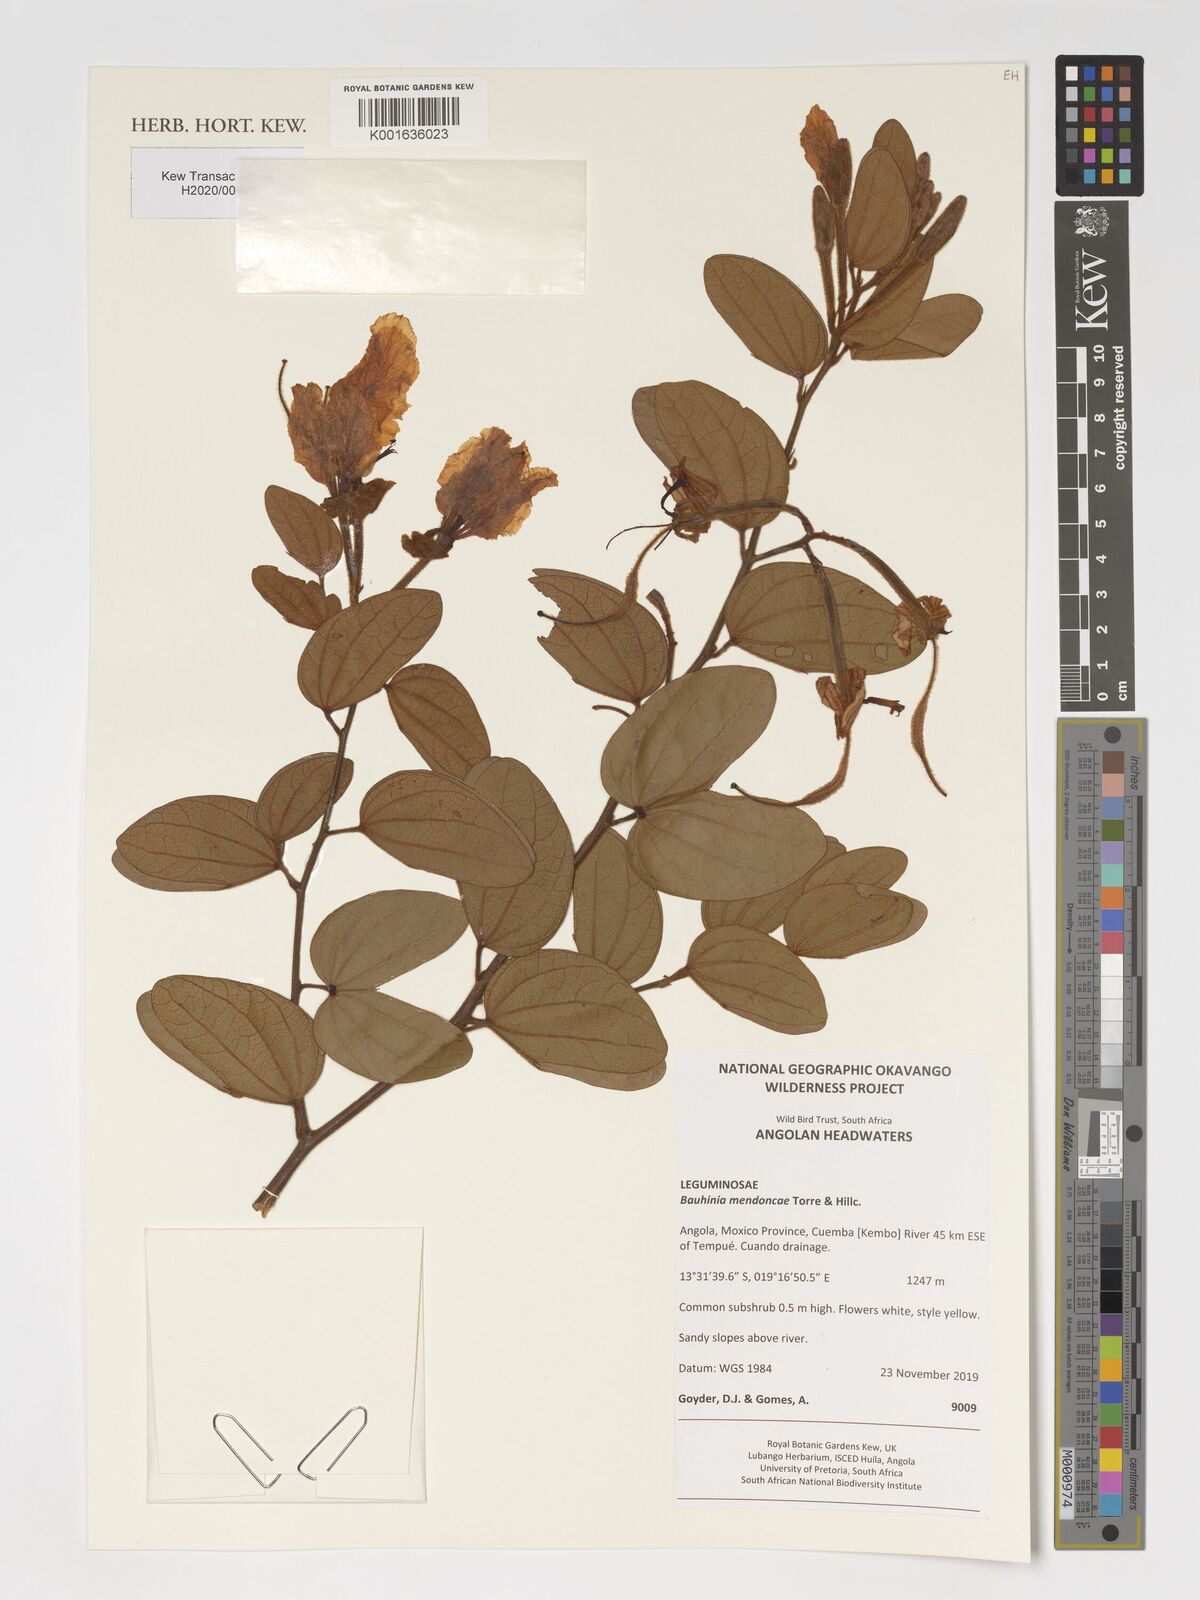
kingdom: Plantae
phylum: Tracheophyta
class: Magnoliopsida
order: Fabales
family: Fabaceae
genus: Bauhinia
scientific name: Bauhinia mendoncae
